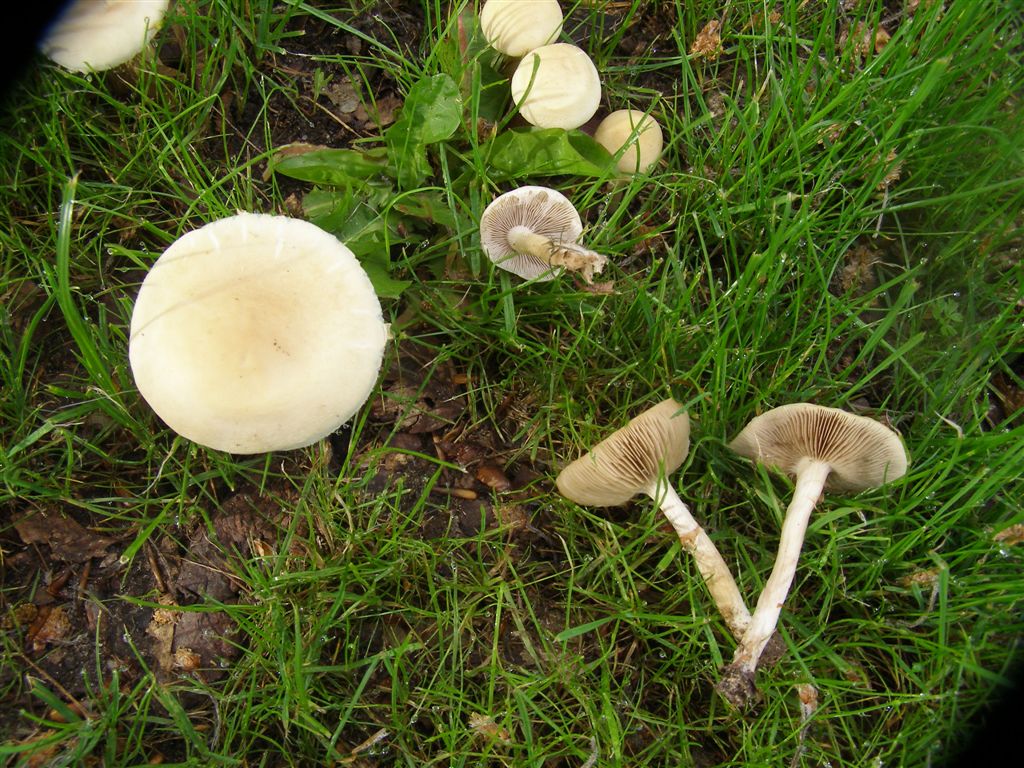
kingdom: Fungi
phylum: Basidiomycota
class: Agaricomycetes
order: Agaricales
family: Strophariaceae
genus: Agrocybe
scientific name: Agrocybe praecox
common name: tidlig agerhat
